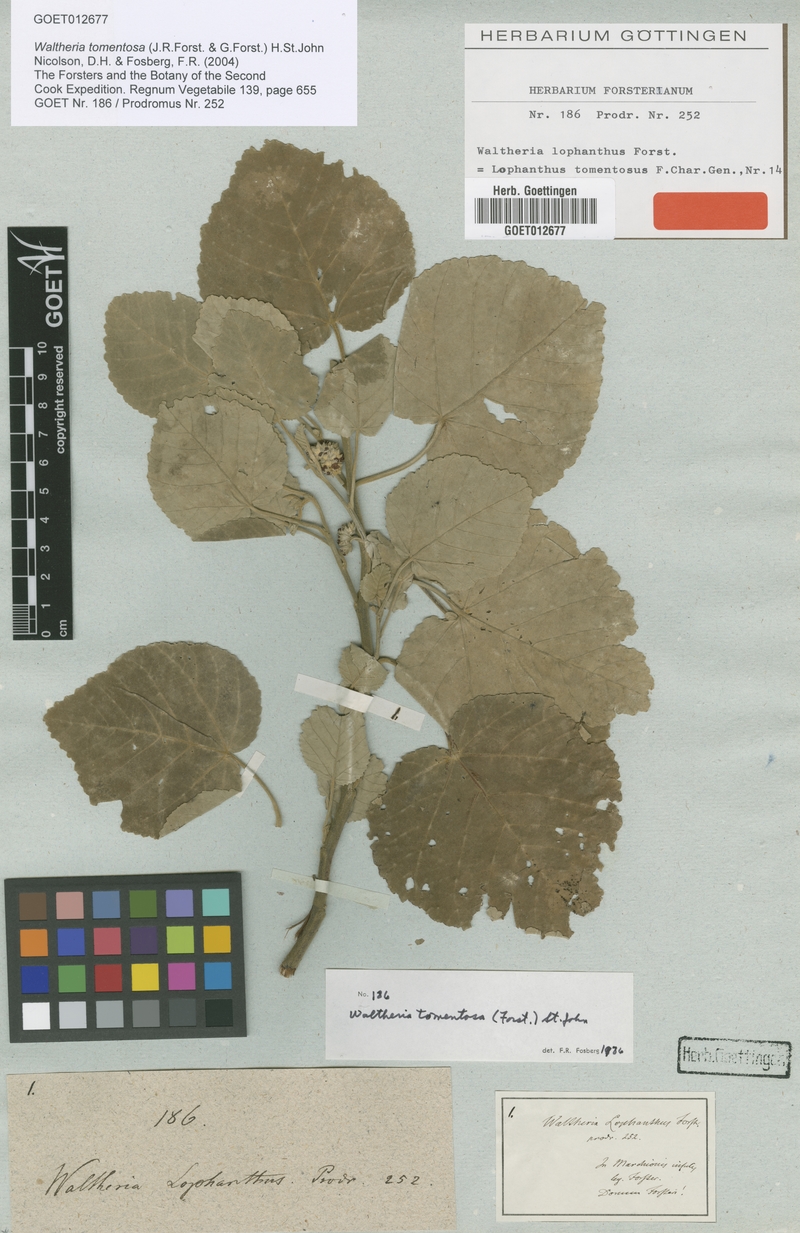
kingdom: Plantae
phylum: Tracheophyta
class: Magnoliopsida
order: Malvales
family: Malvaceae
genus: Waltheria
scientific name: Waltheria tomentosa
